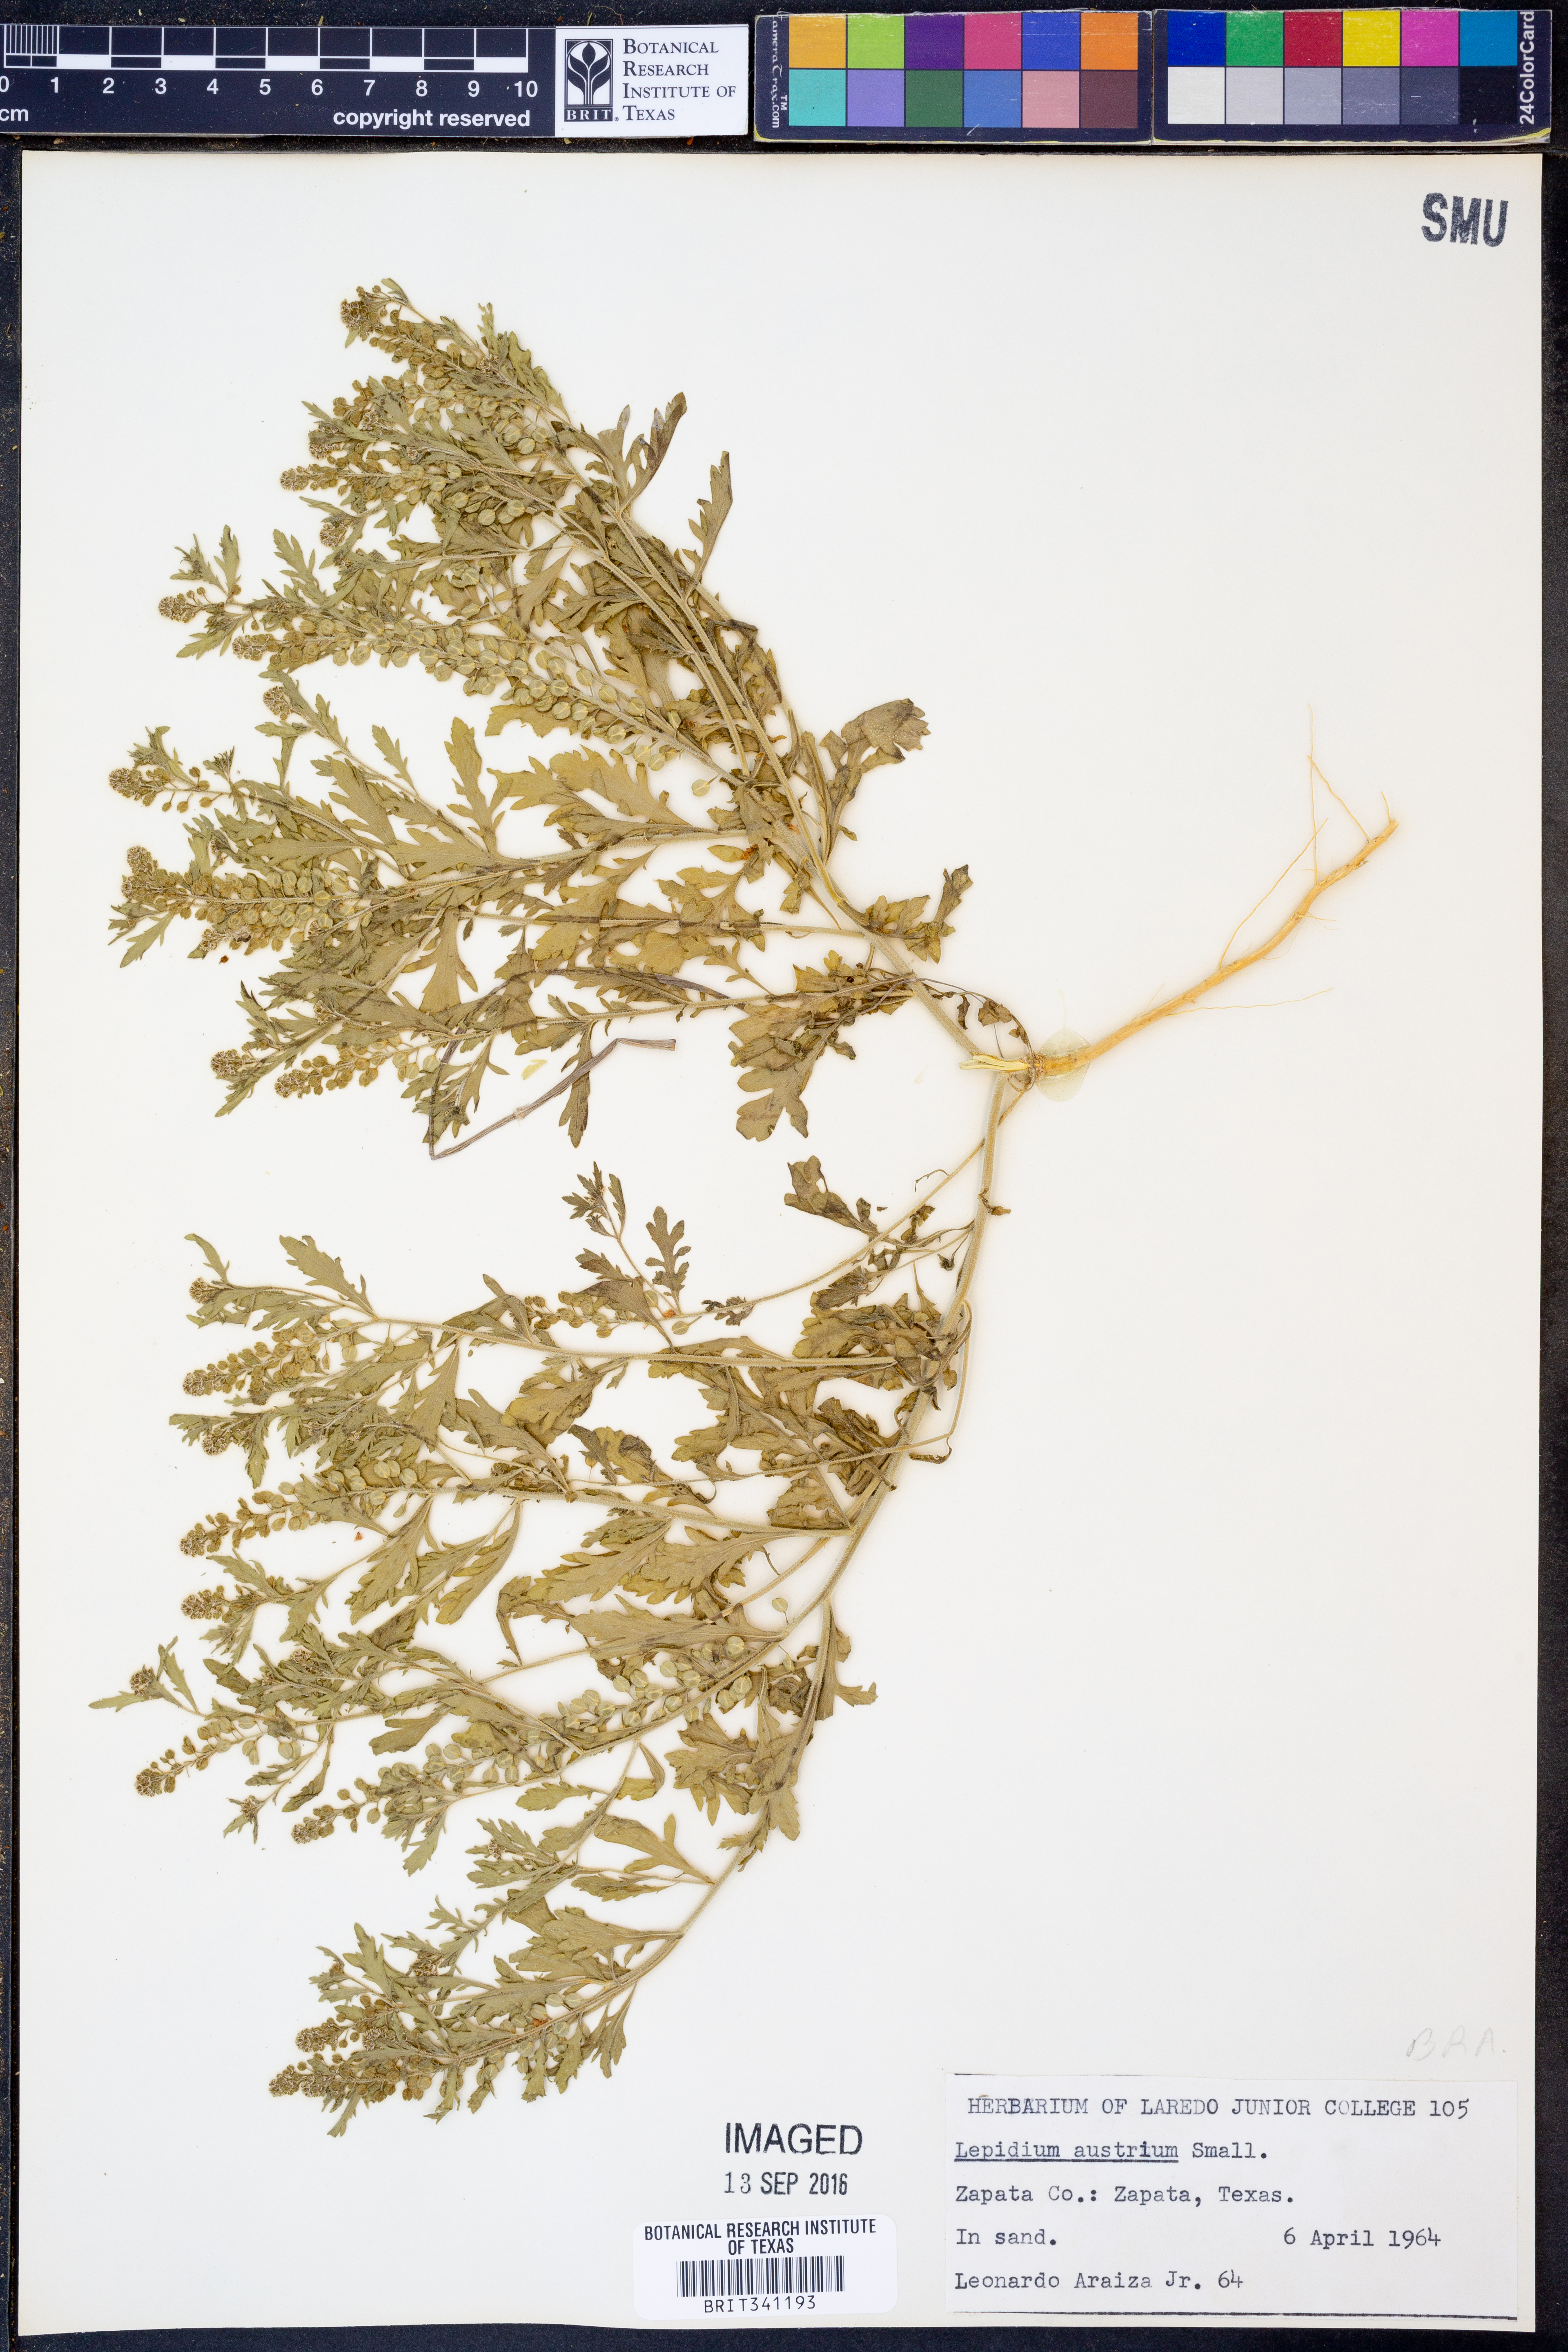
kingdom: Plantae
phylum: Tracheophyta
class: Magnoliopsida
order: Brassicales
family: Brassicaceae
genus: Lepidium
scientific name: Lepidium austrinum
